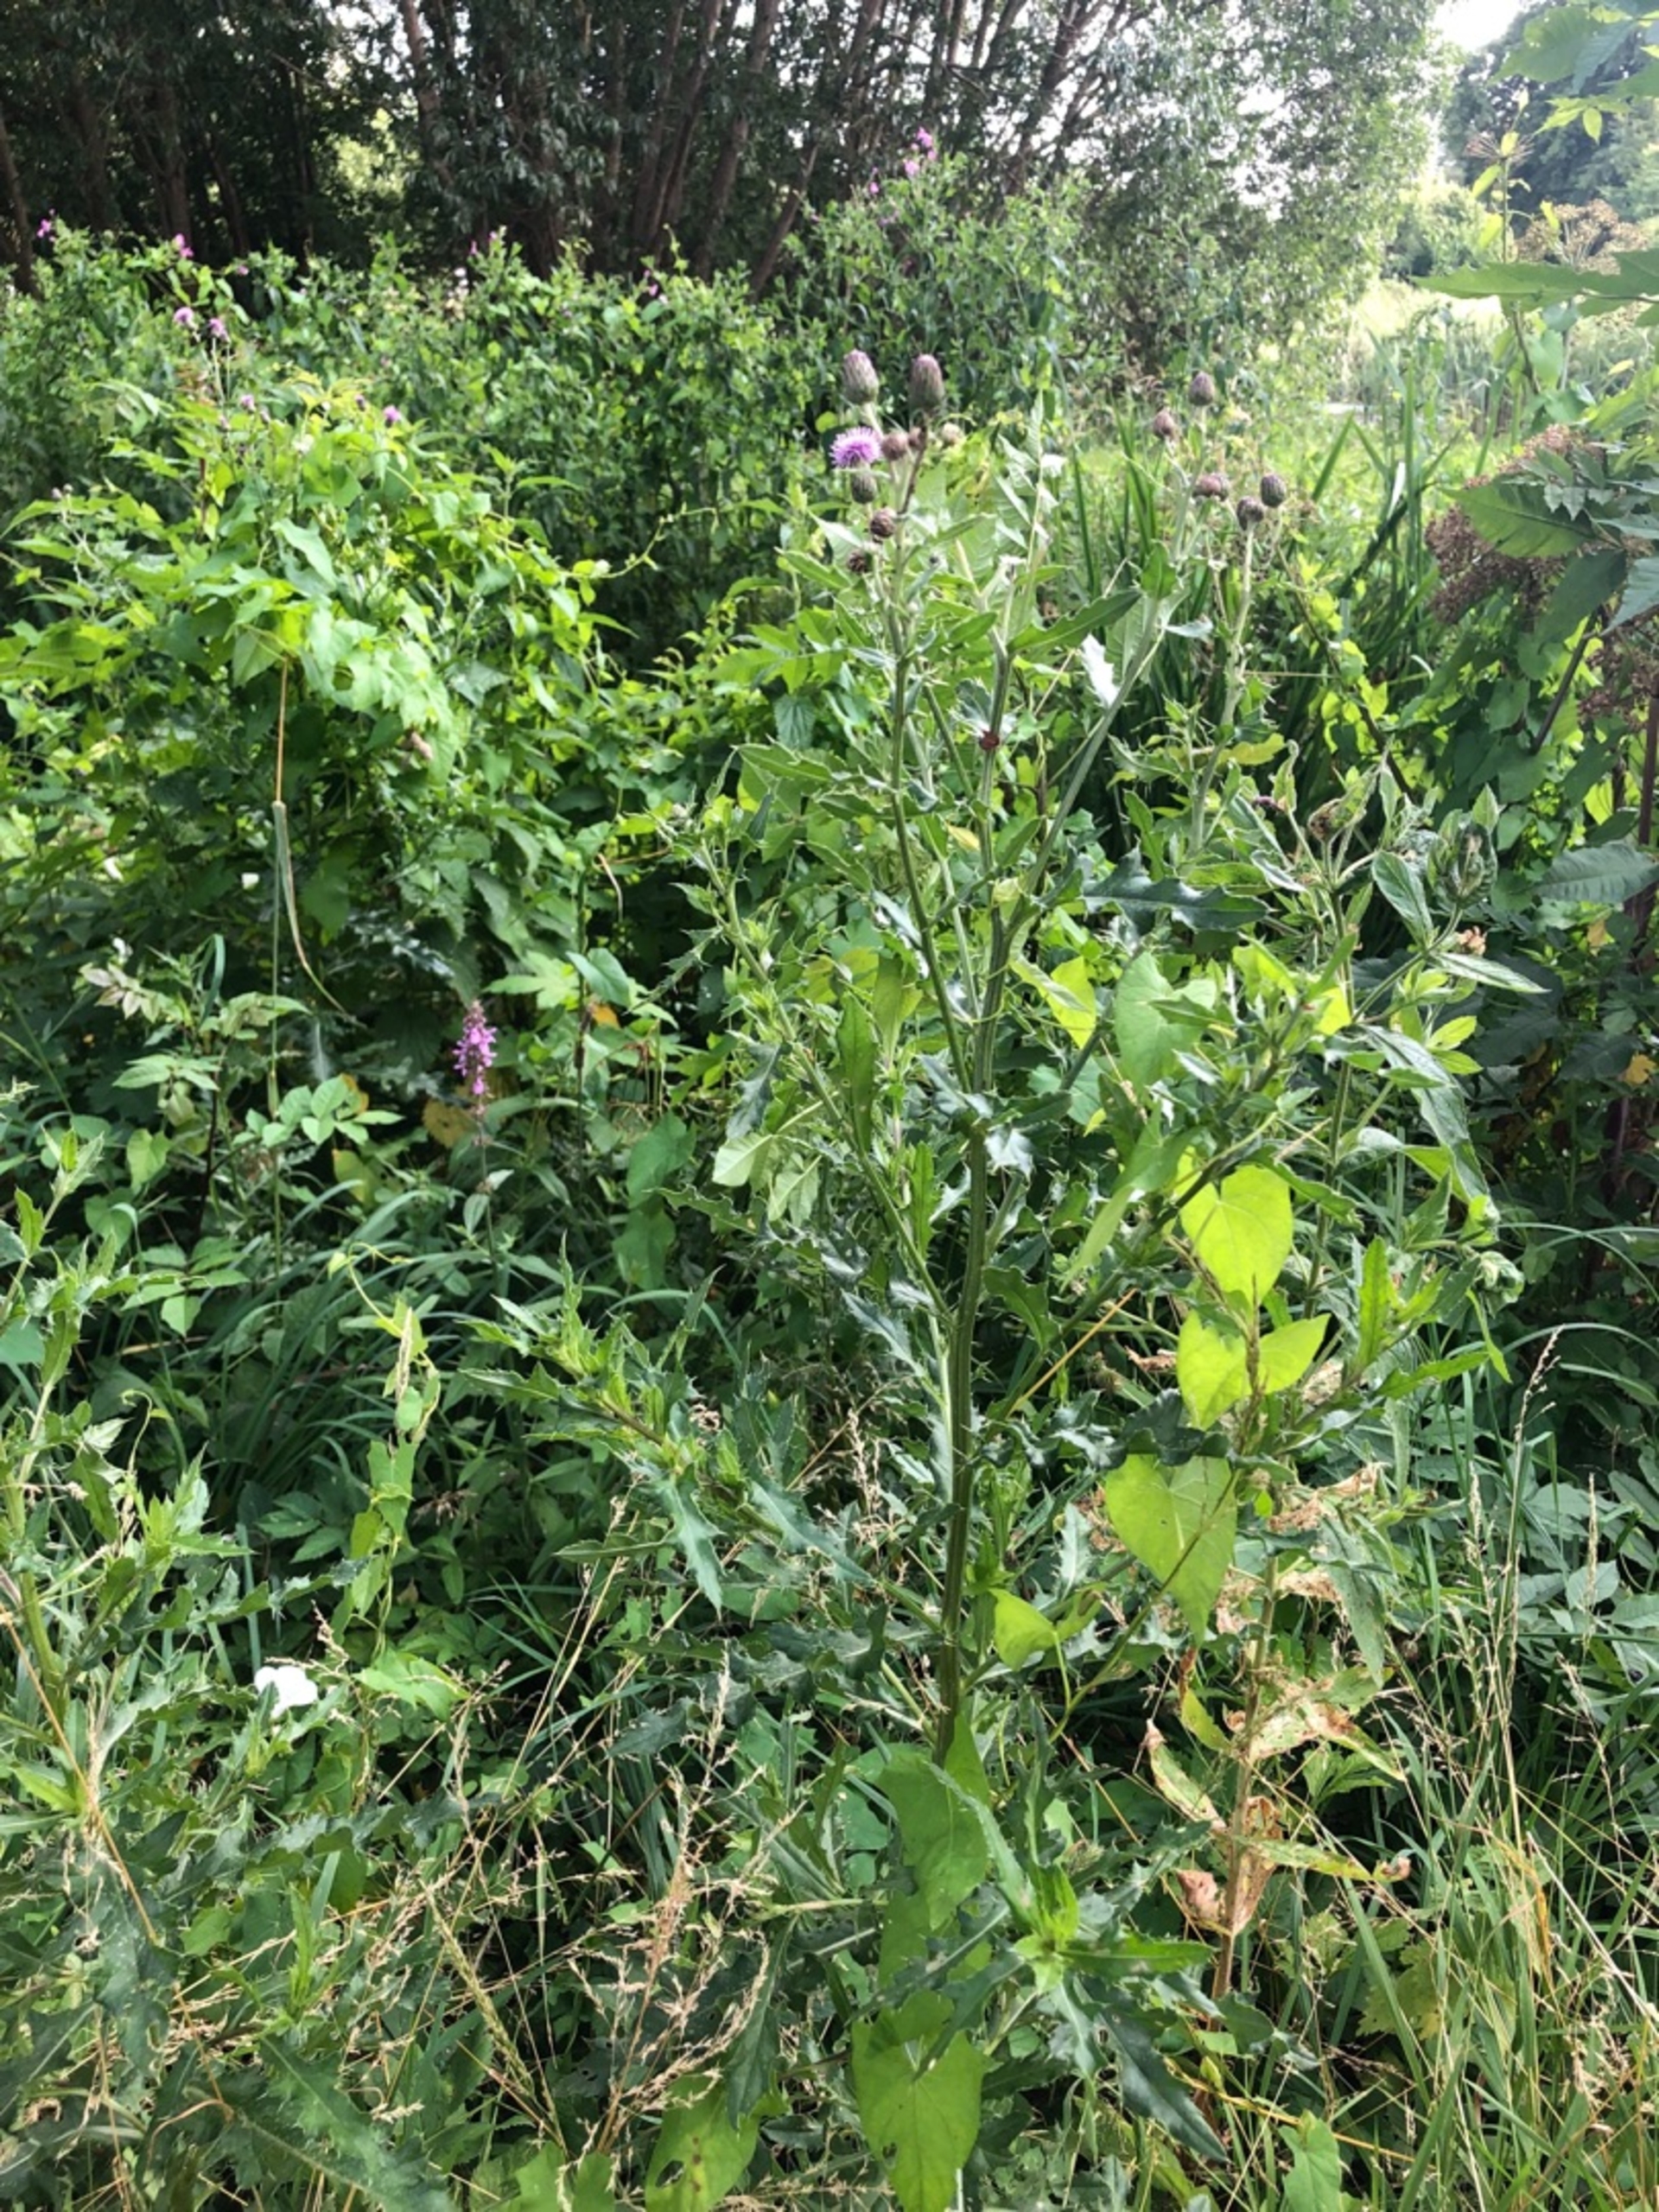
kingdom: Plantae
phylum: Tracheophyta
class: Magnoliopsida
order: Asterales
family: Asteraceae
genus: Cirsium
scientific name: Cirsium arvense
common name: Ager-tidsel
